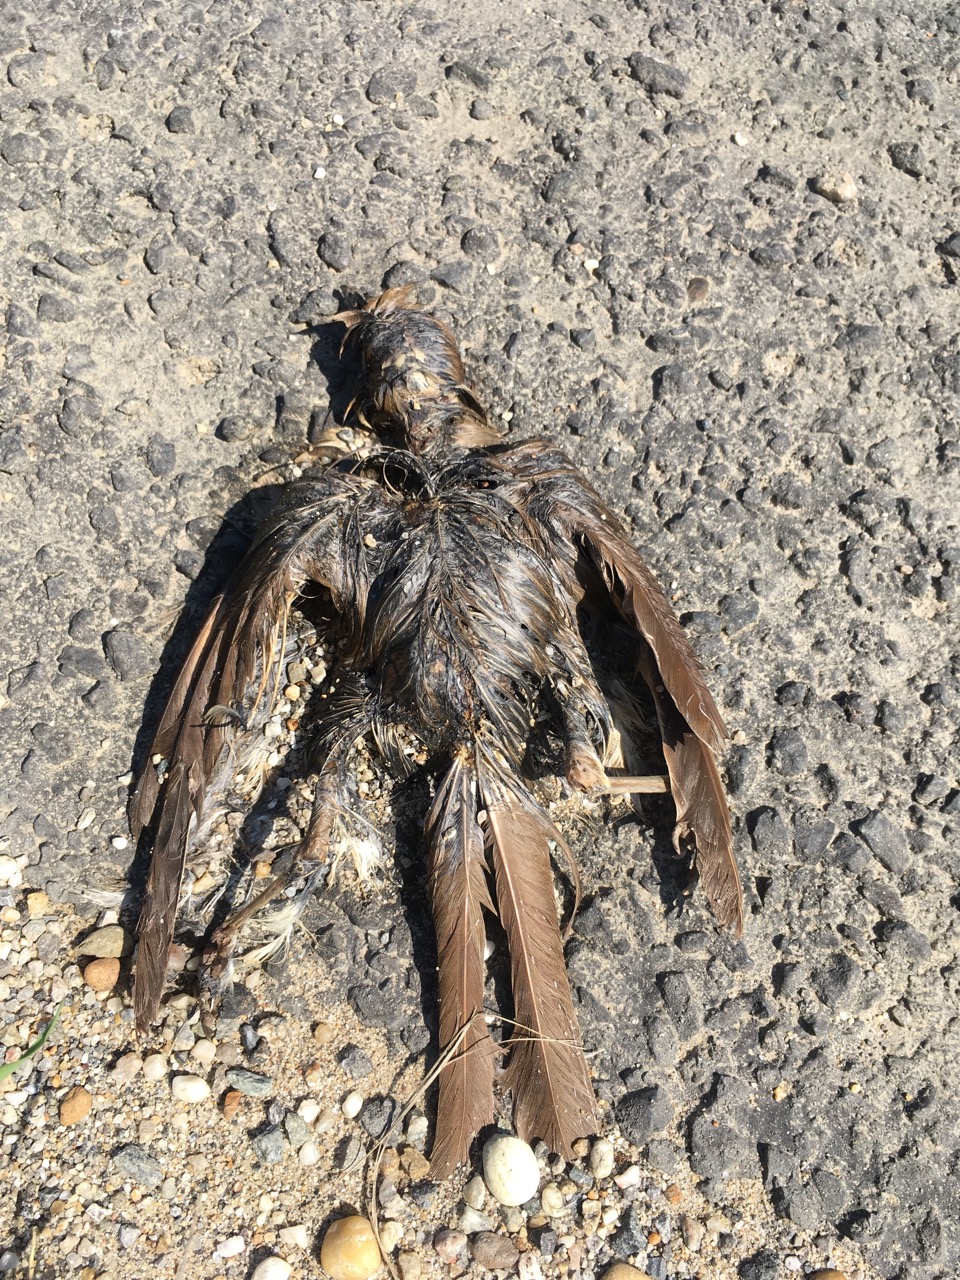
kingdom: Animalia
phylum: Chordata
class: Aves
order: Passeriformes
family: Turdidae
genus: Turdus
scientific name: Turdus
